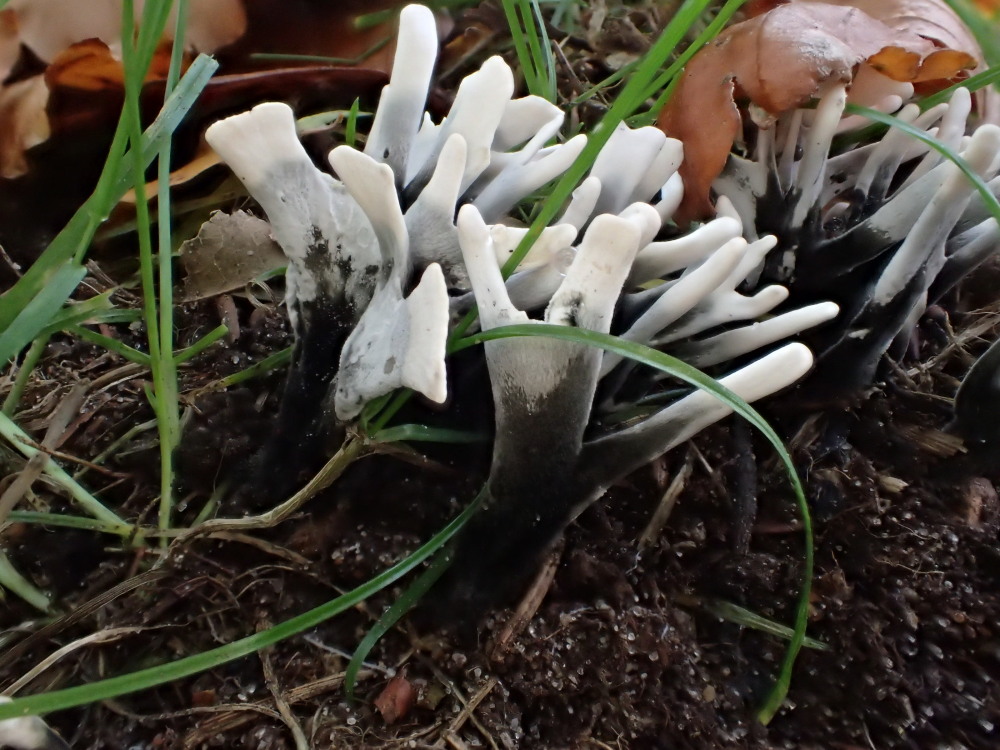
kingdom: Fungi
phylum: Ascomycota
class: Sordariomycetes
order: Xylariales
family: Xylariaceae
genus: Xylaria
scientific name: Xylaria hypoxylon
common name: grenet stødsvamp
